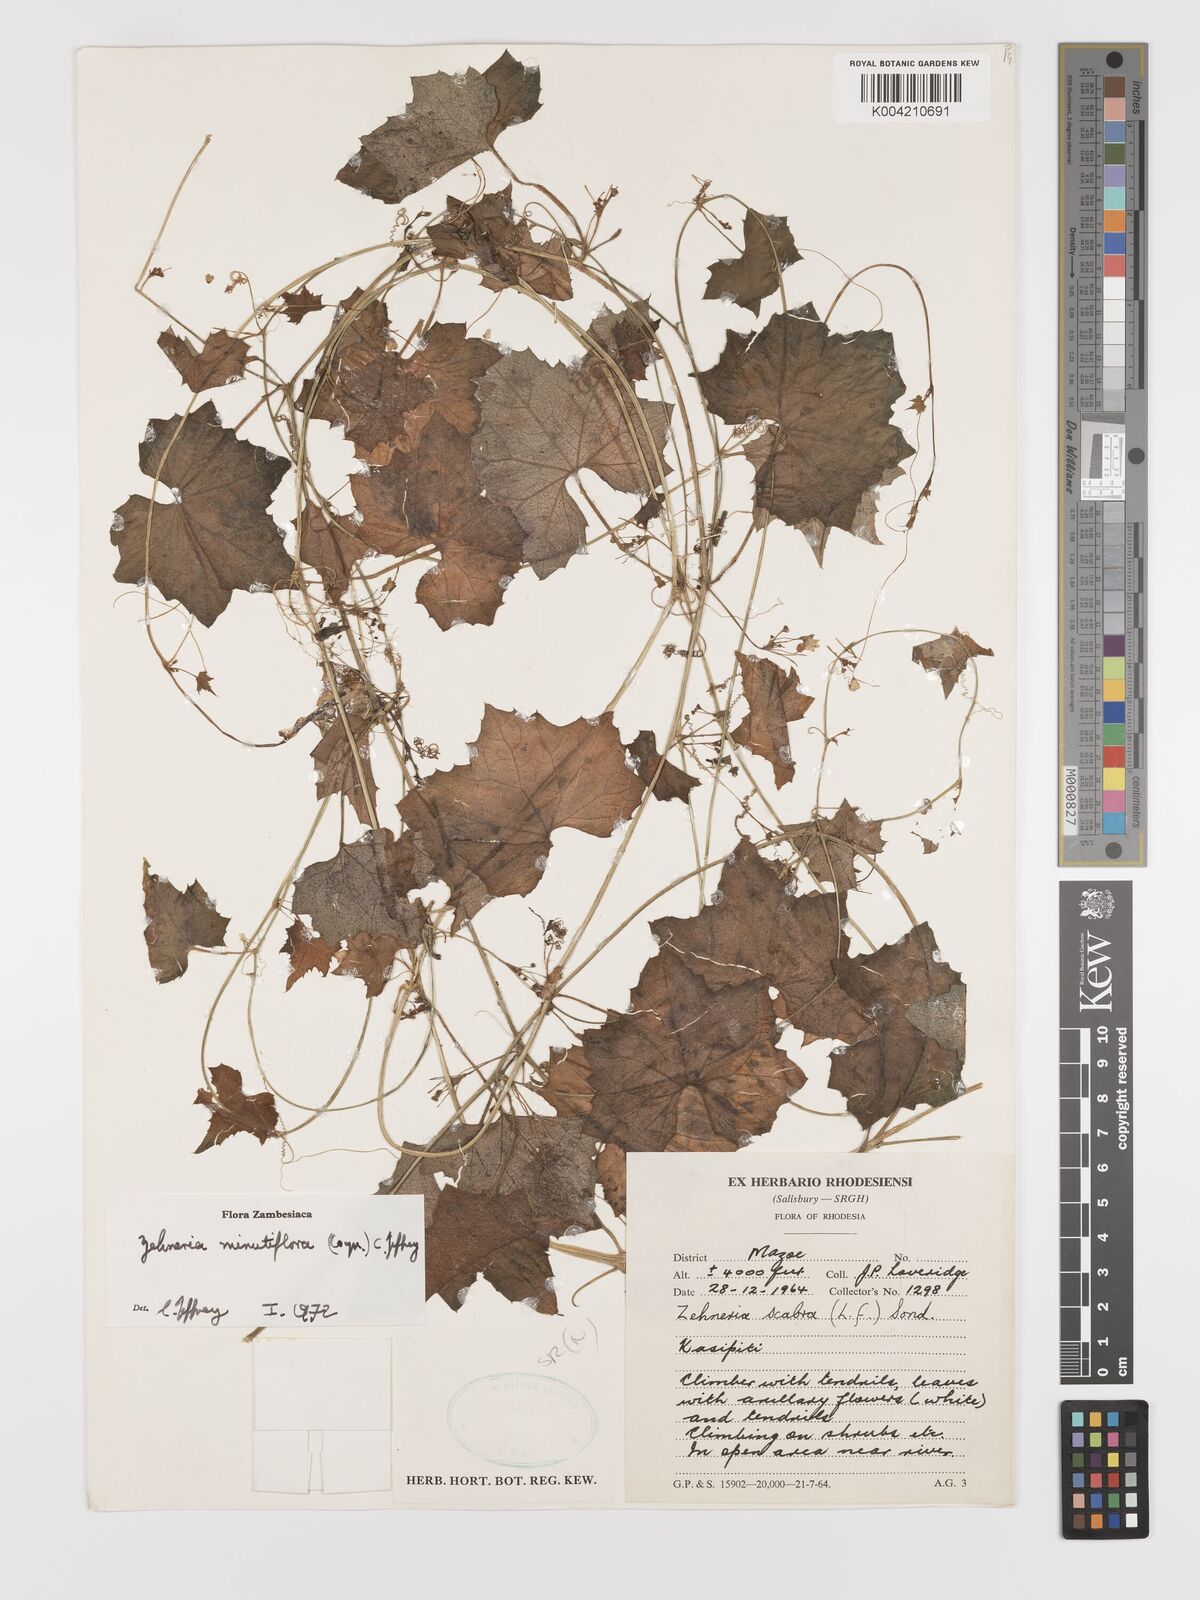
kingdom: Plantae
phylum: Tracheophyta
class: Magnoliopsida
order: Cucurbitales
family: Cucurbitaceae
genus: Zehneria
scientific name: Zehneria minutiflora
